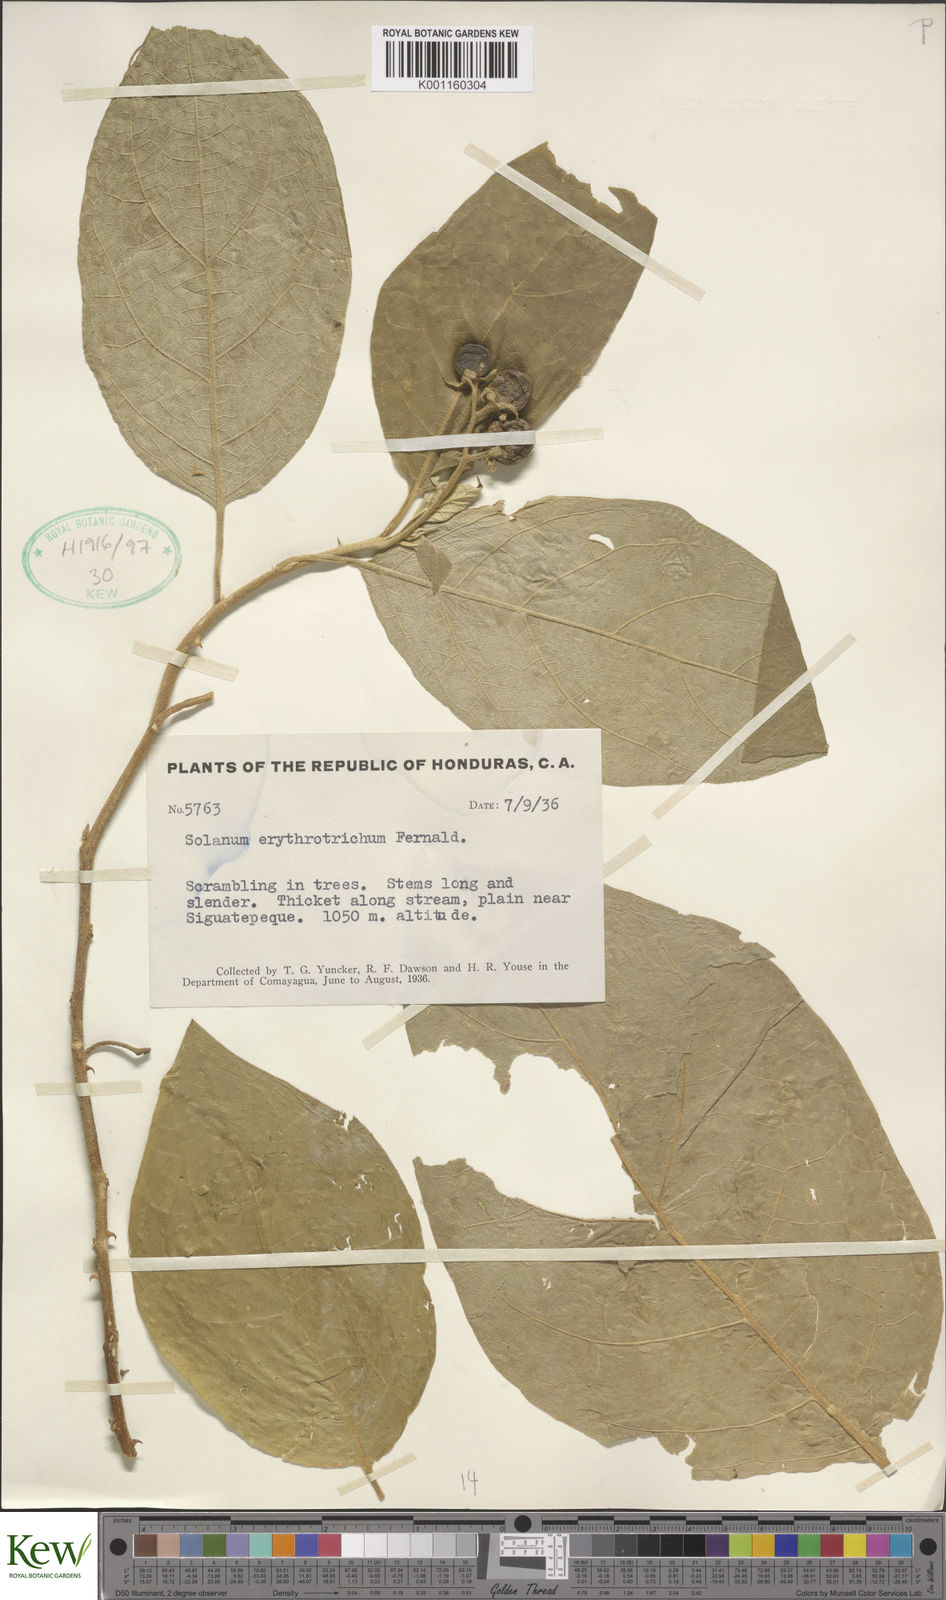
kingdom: Plantae
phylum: Tracheophyta
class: Magnoliopsida
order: Solanales
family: Solanaceae
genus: Solanum
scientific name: Solanum erythrotrichum
